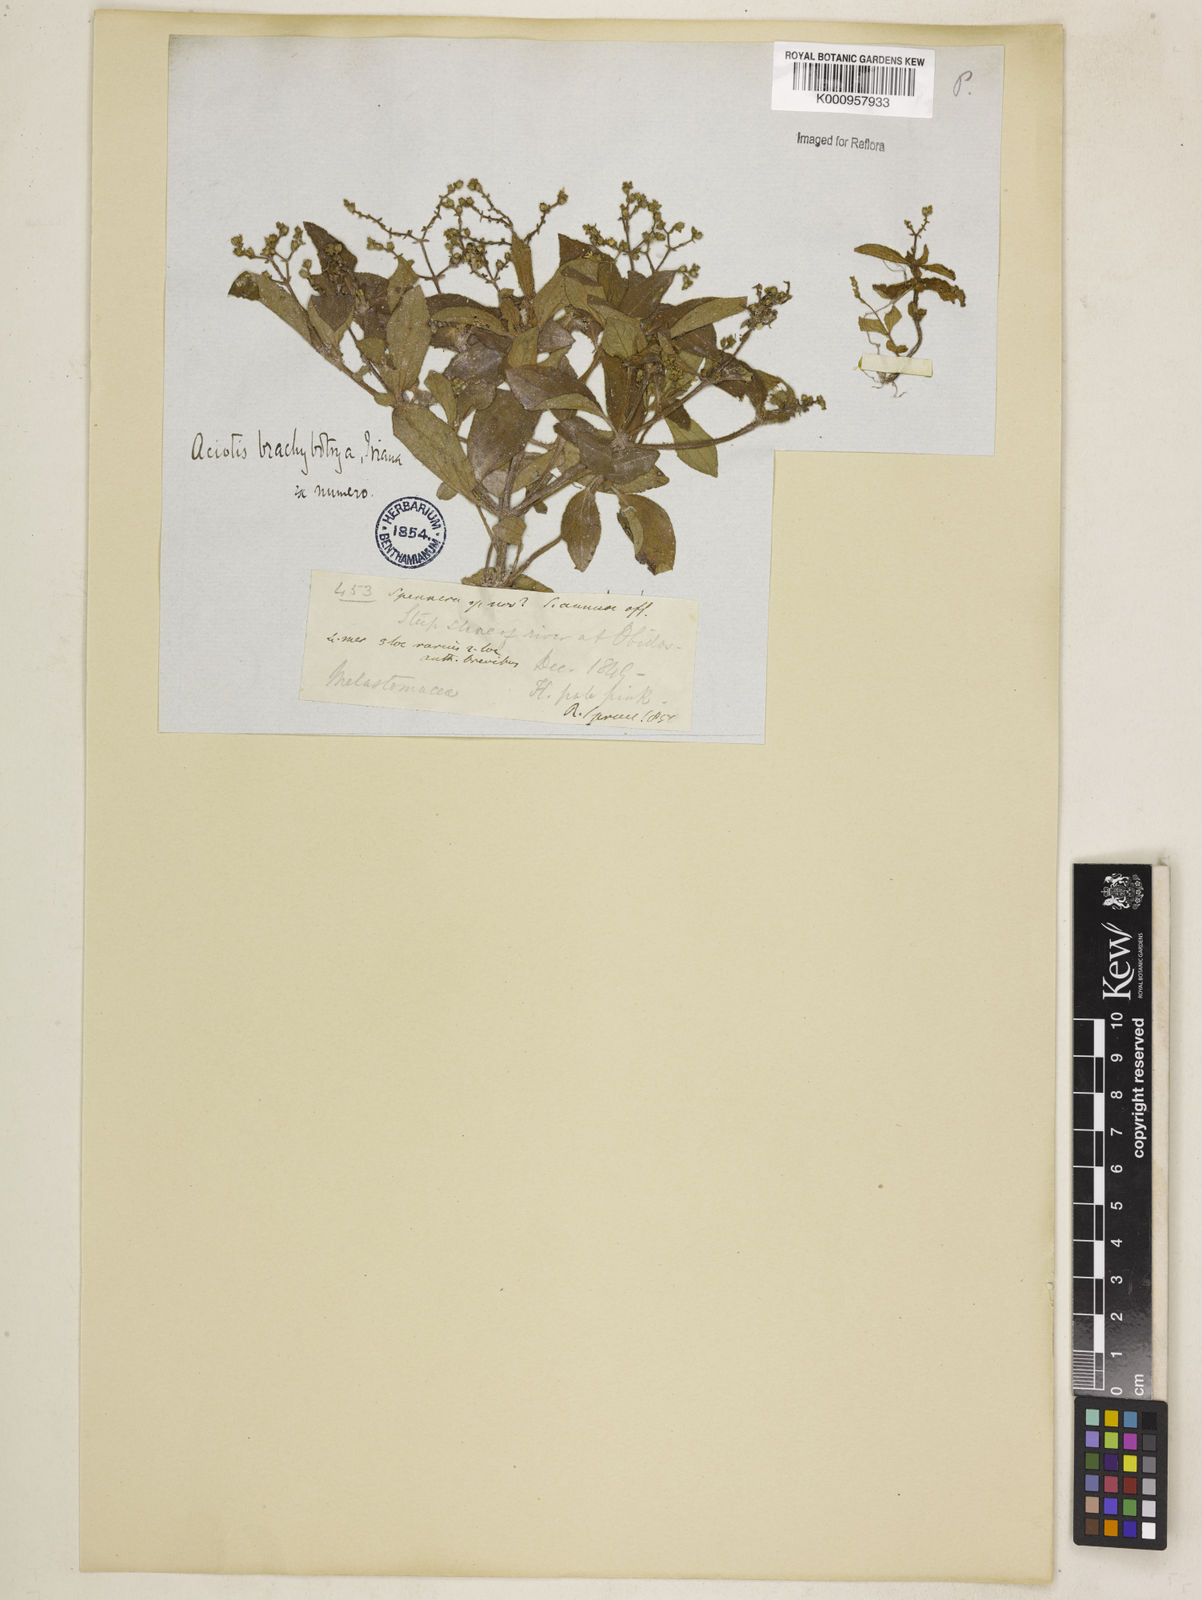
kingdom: Plantae
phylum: Tracheophyta
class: Magnoliopsida
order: Myrtales
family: Melastomataceae
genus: Aciotis
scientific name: Aciotis paludosa
